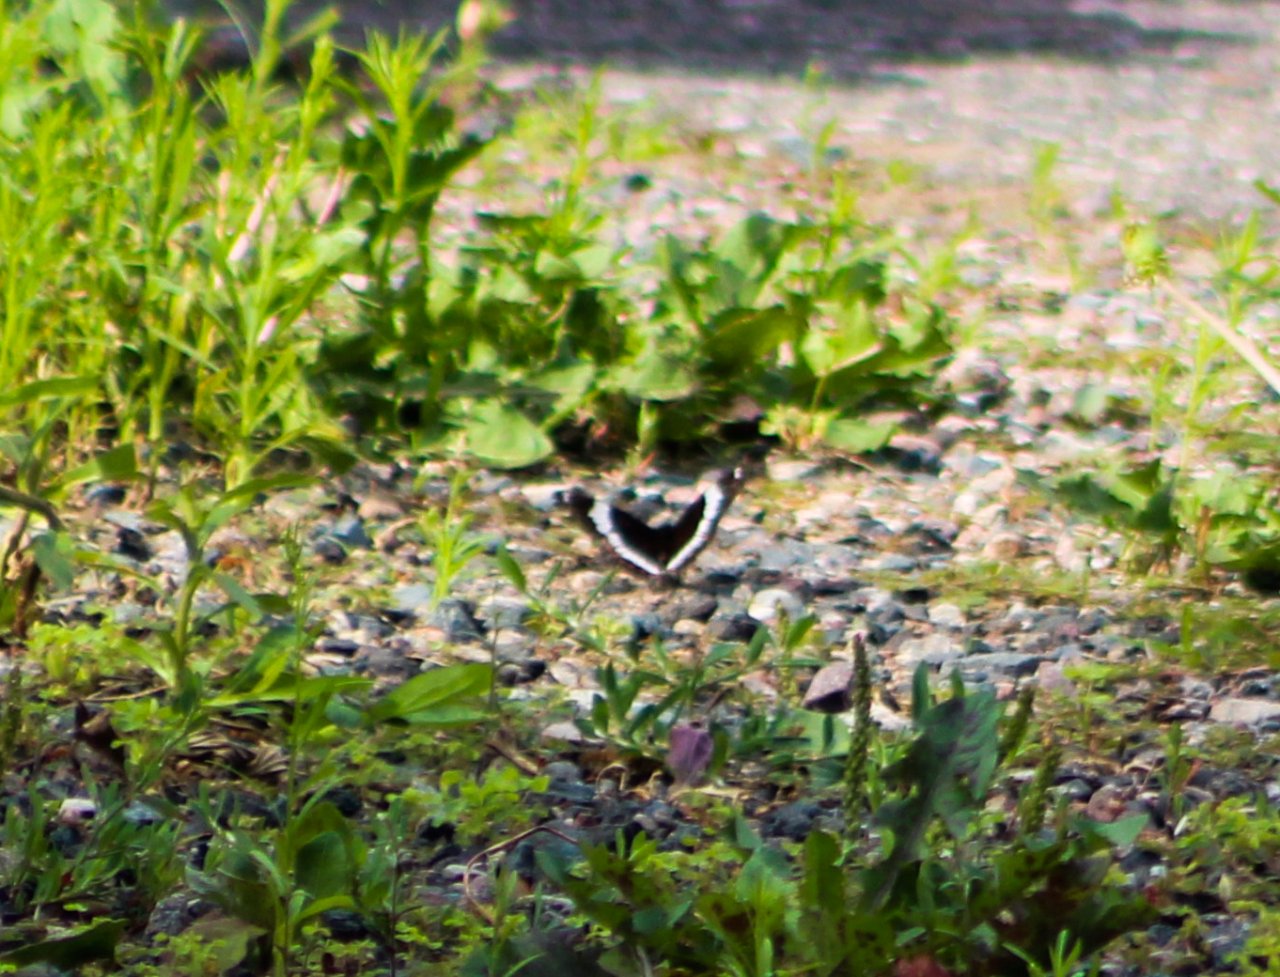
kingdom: Animalia
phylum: Arthropoda
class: Insecta
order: Lepidoptera
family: Nymphalidae
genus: Limenitis
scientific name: Limenitis arthemis
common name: Red-spotted Admiral
